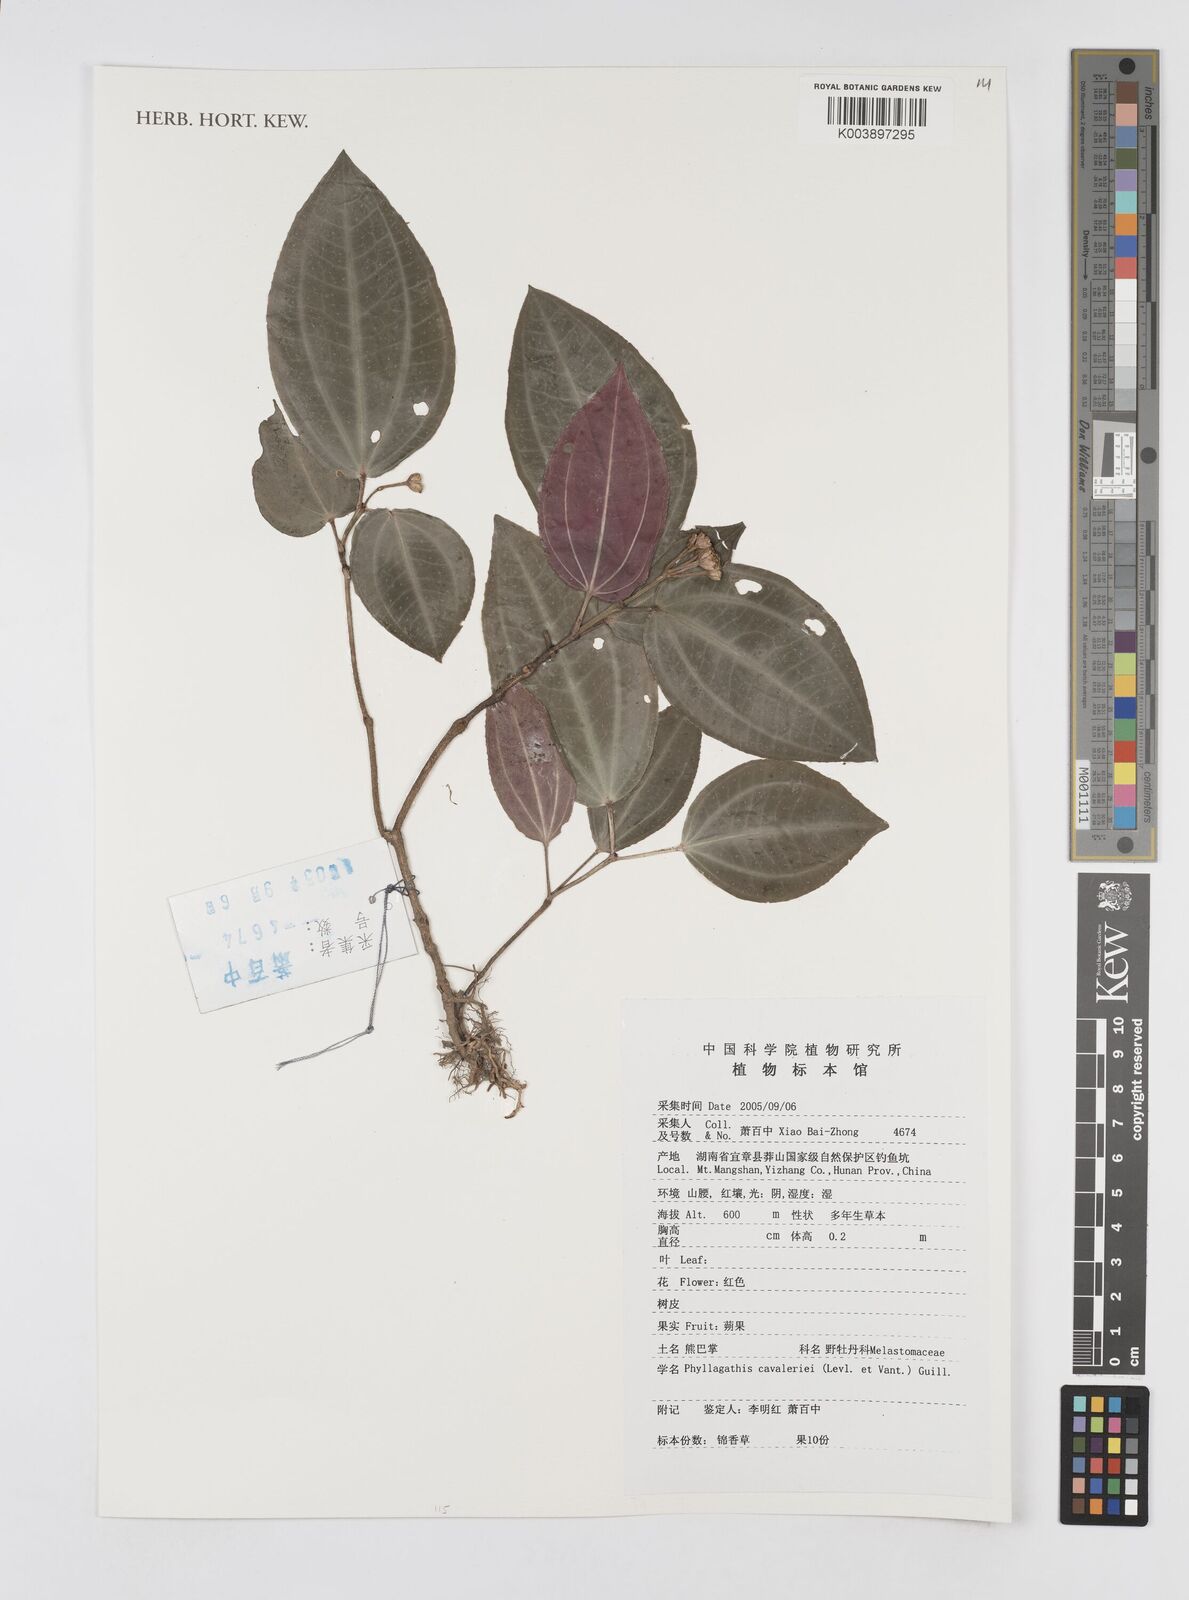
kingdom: Plantae
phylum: Tracheophyta
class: Magnoliopsida
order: Myrtales
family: Melastomataceae
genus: Phyllagathis
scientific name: Phyllagathis cavaleriei
